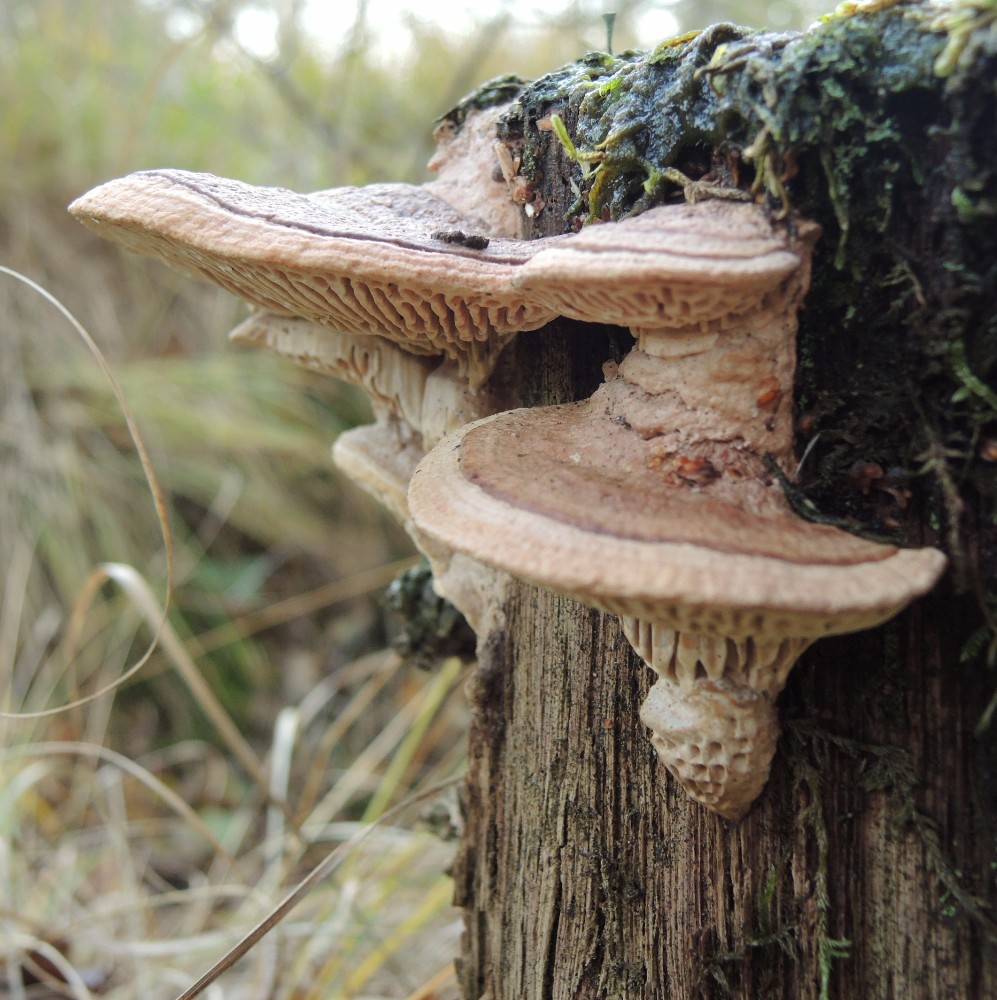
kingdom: Fungi
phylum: Basidiomycota
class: Agaricomycetes
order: Polyporales
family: Fomitopsidaceae
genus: Daedalea
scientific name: Daedalea quercina
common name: ege-labyrintsvamp
